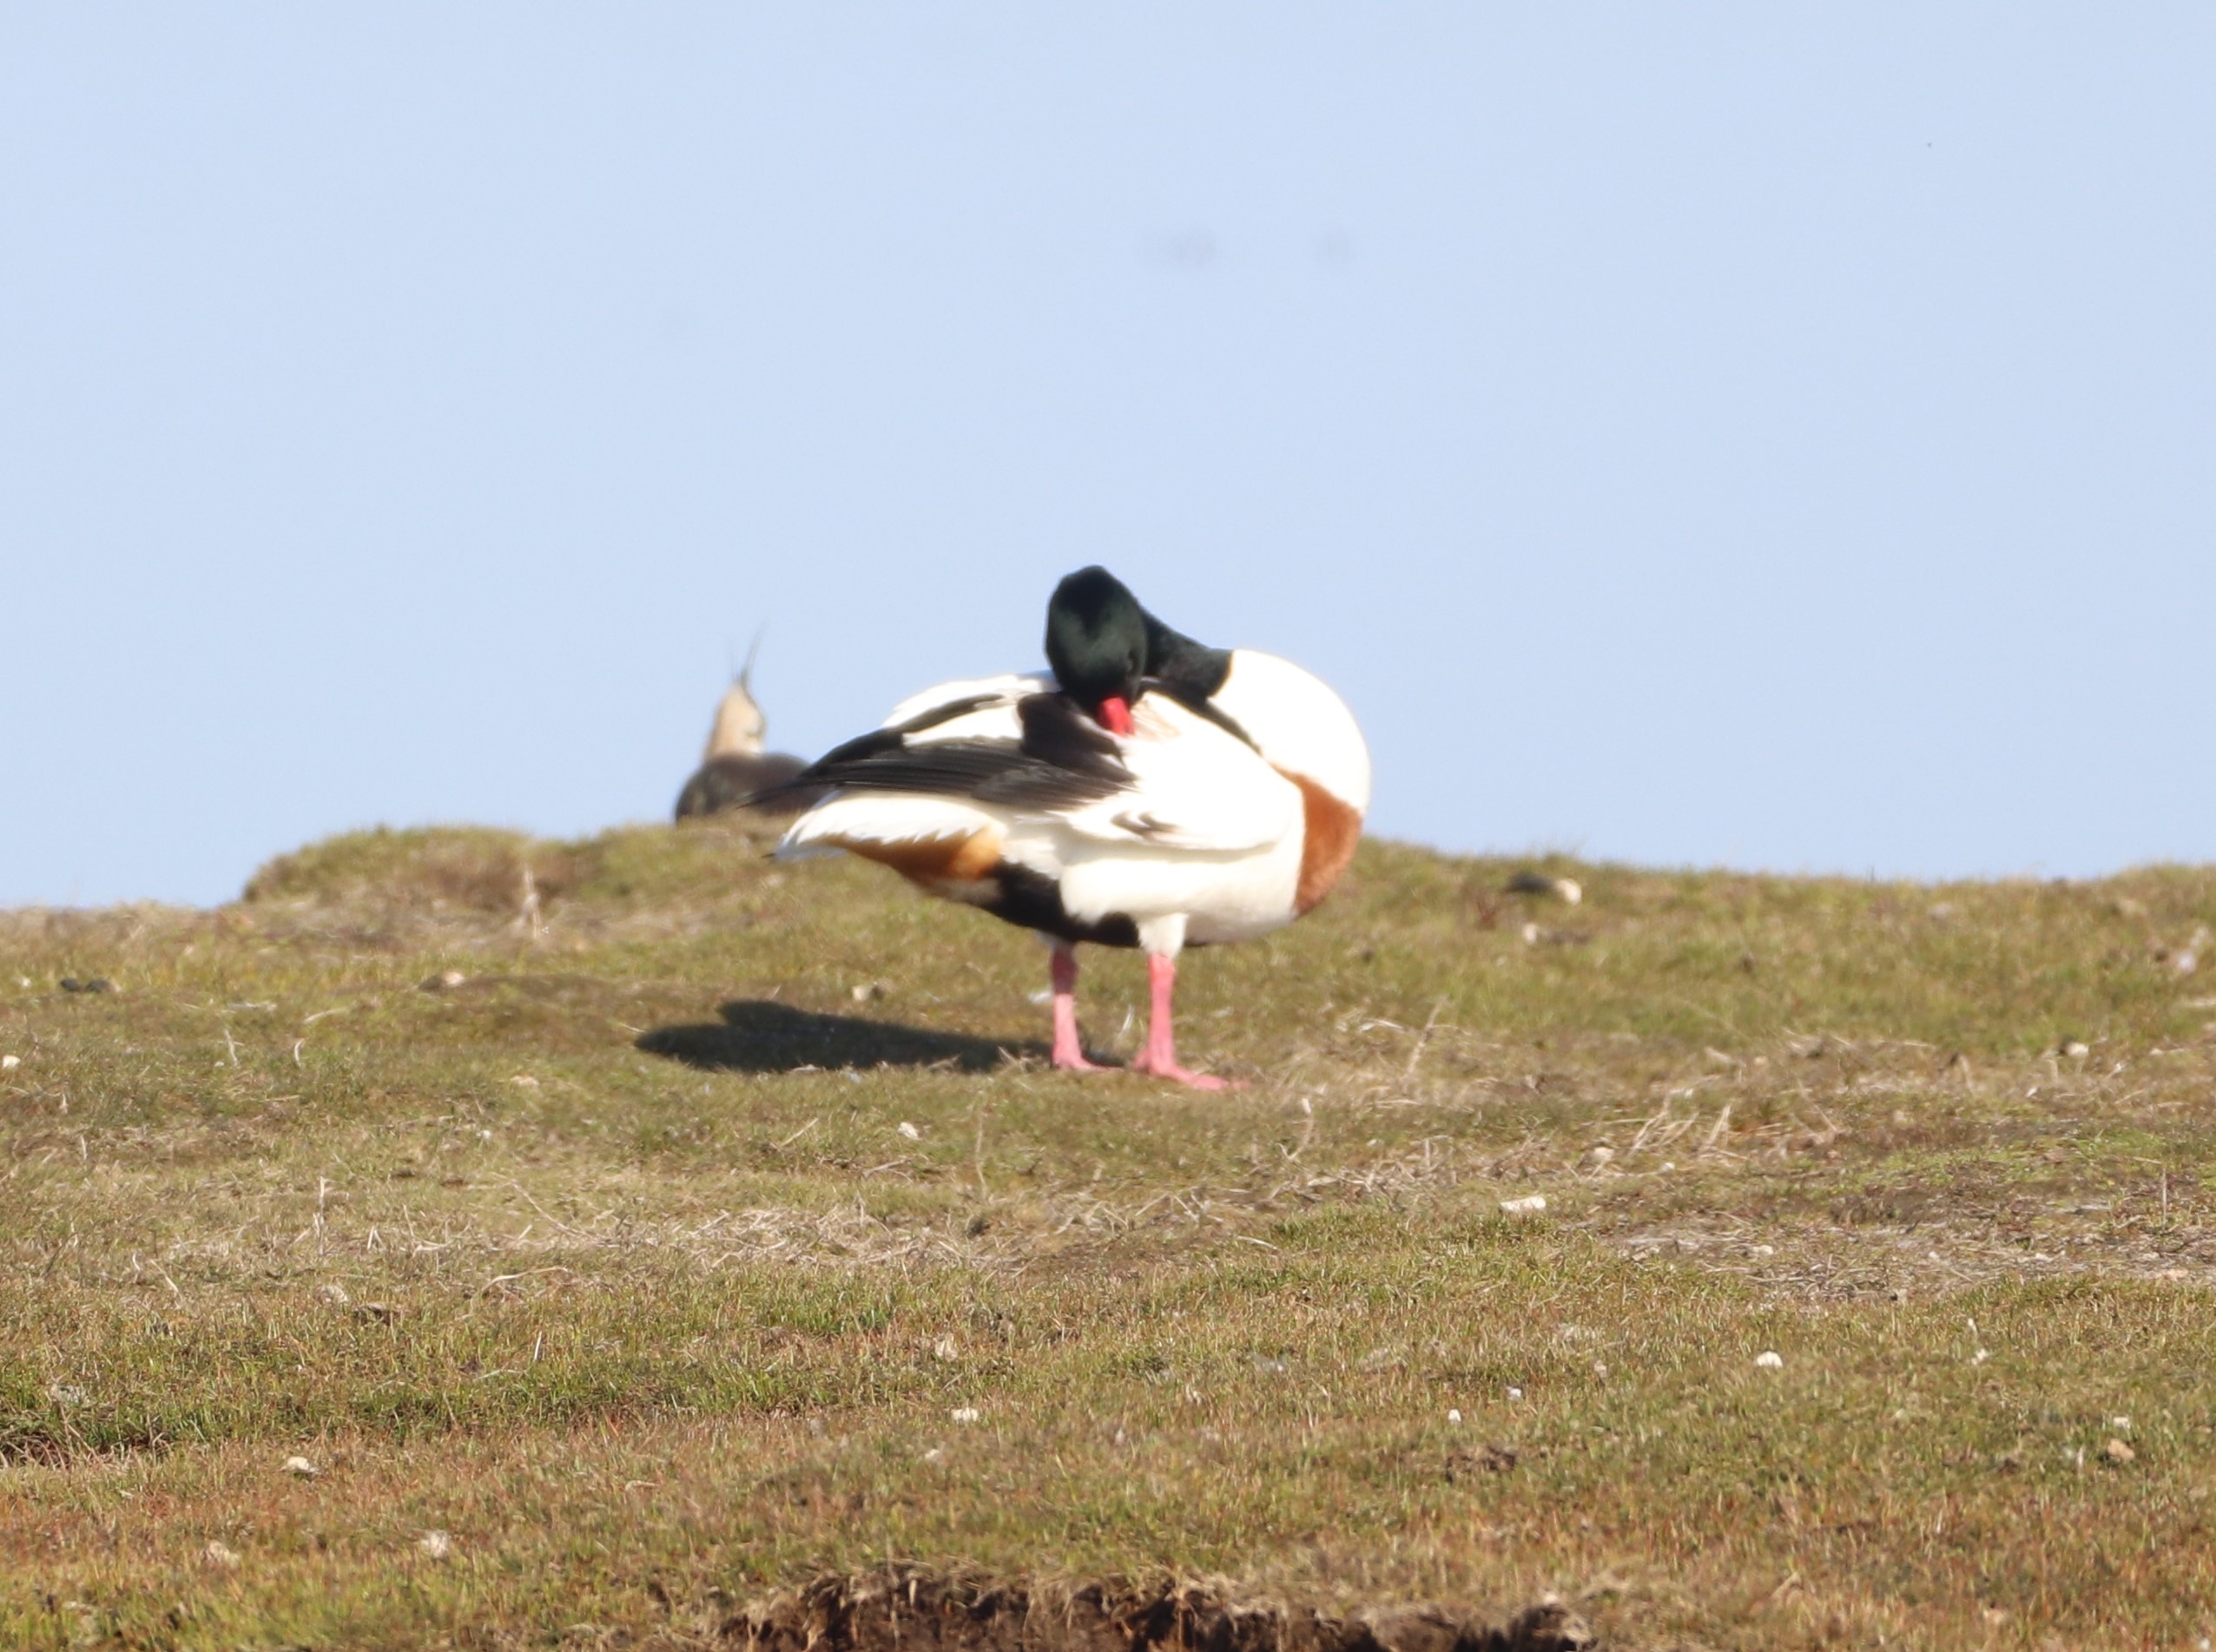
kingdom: Animalia
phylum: Chordata
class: Aves
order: Anseriformes
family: Anatidae
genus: Tadorna
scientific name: Tadorna tadorna
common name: Gravand
